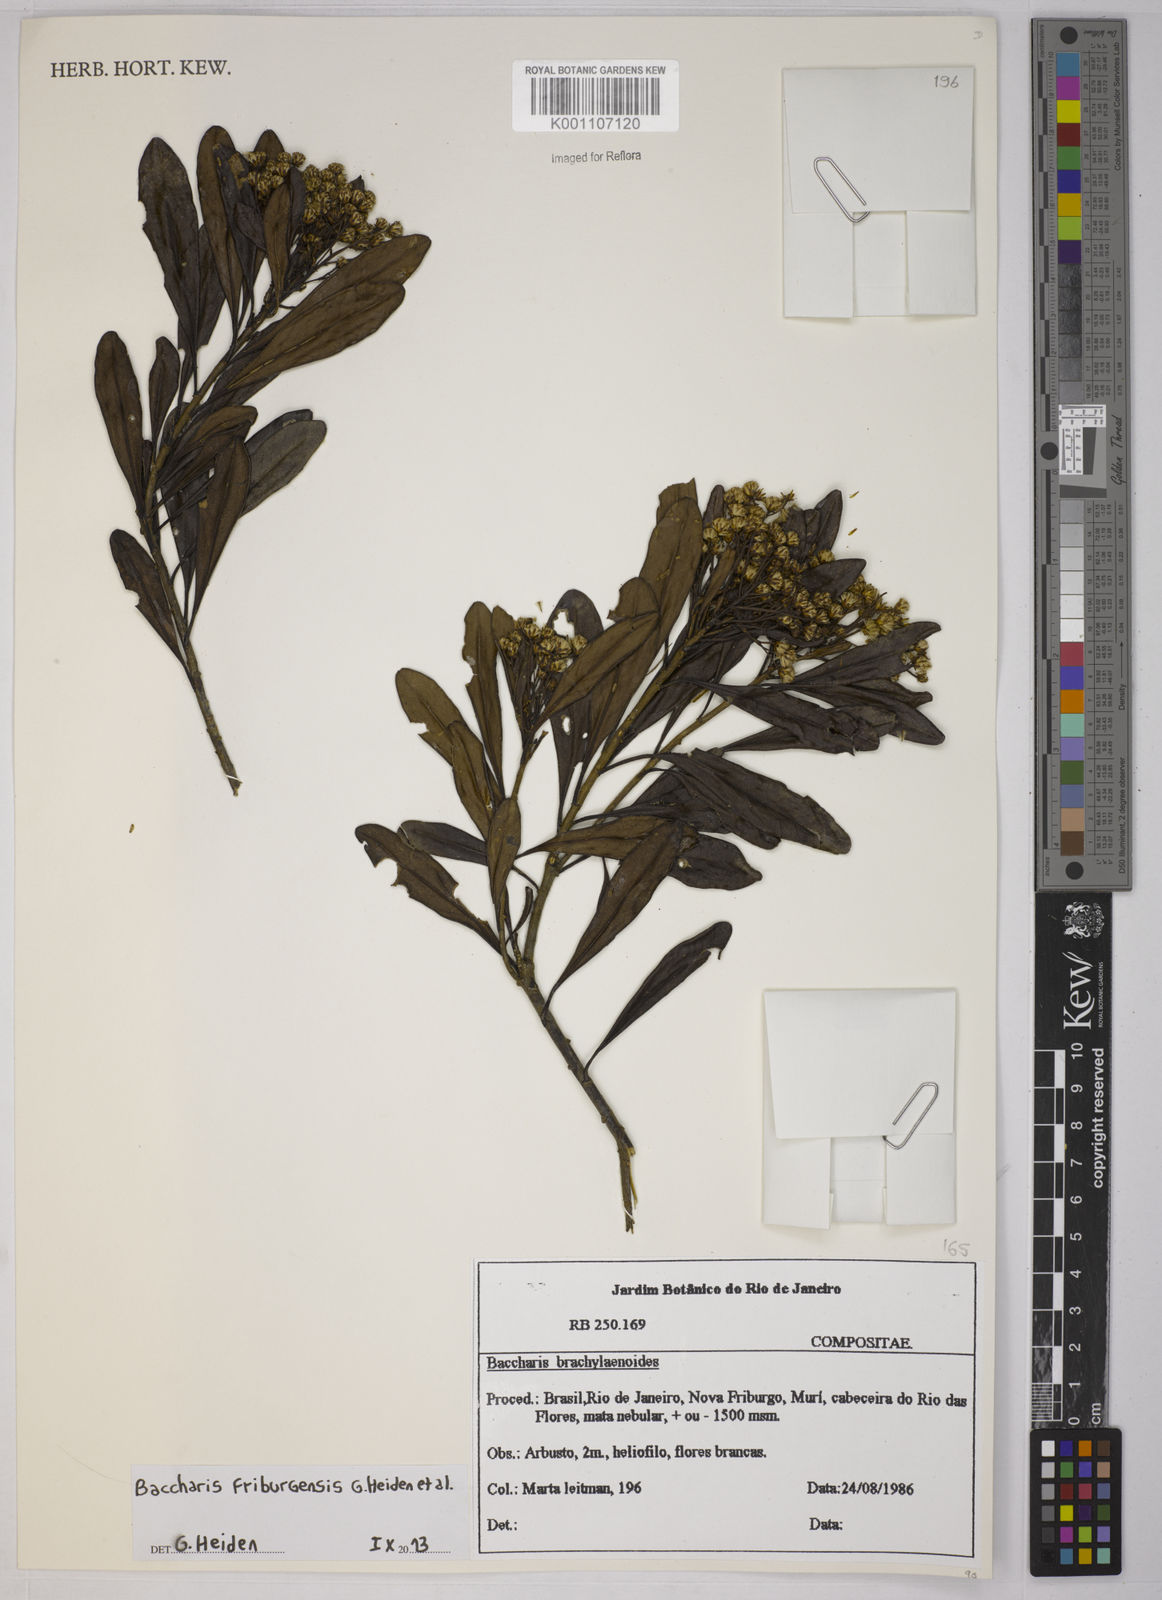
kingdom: Plantae
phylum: Tracheophyta
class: Magnoliopsida
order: Asterales
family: Asteraceae
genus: Baccharis
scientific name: Baccharis
